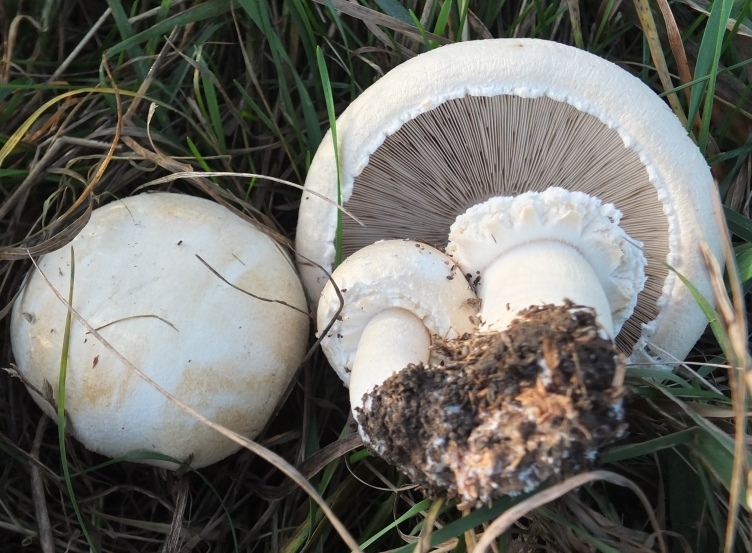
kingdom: Fungi
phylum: Basidiomycota
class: Agaricomycetes
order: Agaricales
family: Agaricaceae
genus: Agaricus
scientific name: Agaricus arvensis
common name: ager-champignon
